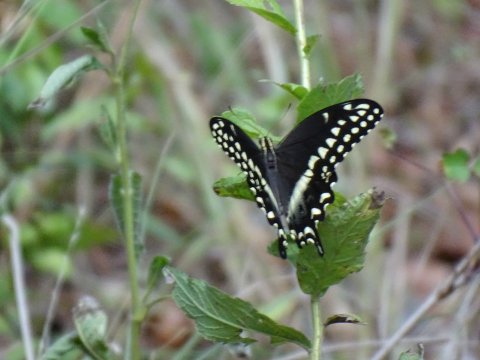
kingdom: Animalia
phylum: Arthropoda
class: Insecta
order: Lepidoptera
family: Papilionidae
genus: Pterourus
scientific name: Pterourus palamedes
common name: Palamedes Swallowtail
